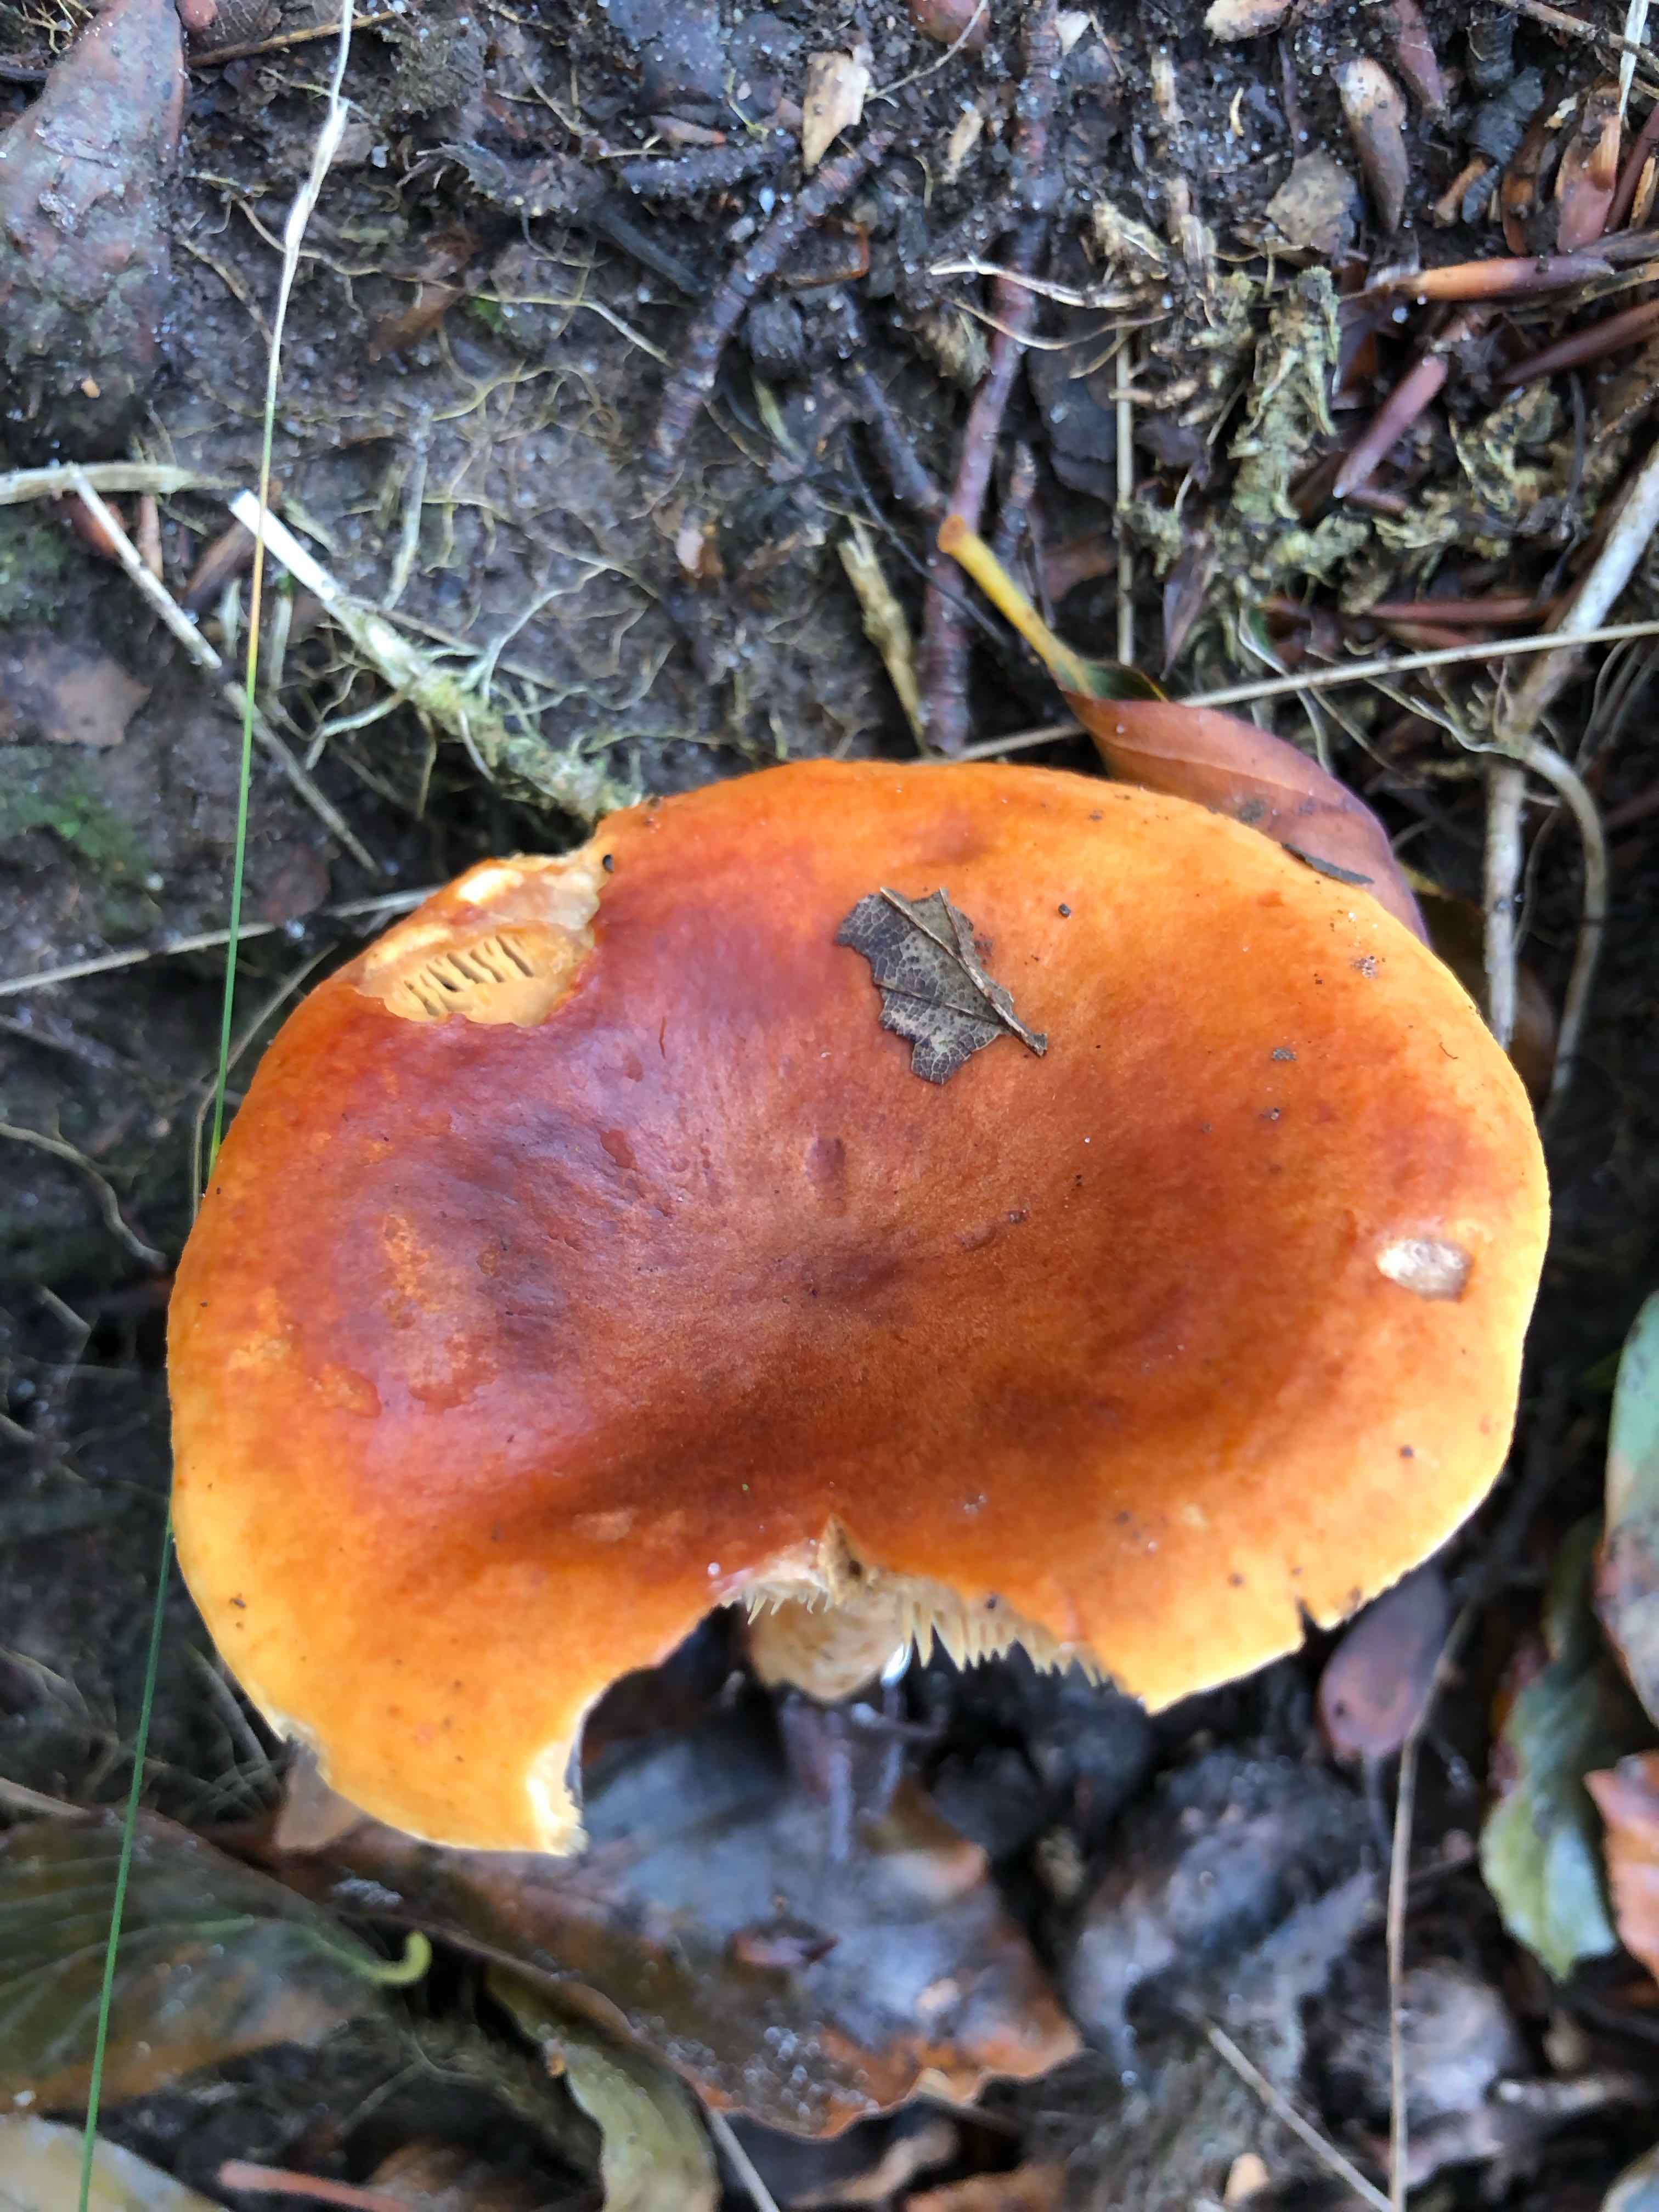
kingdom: Fungi
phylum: Basidiomycota
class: Agaricomycetes
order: Russulales
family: Russulaceae
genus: Lactarius
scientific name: Lactarius fulvissimus
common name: ræve-mælkehat
